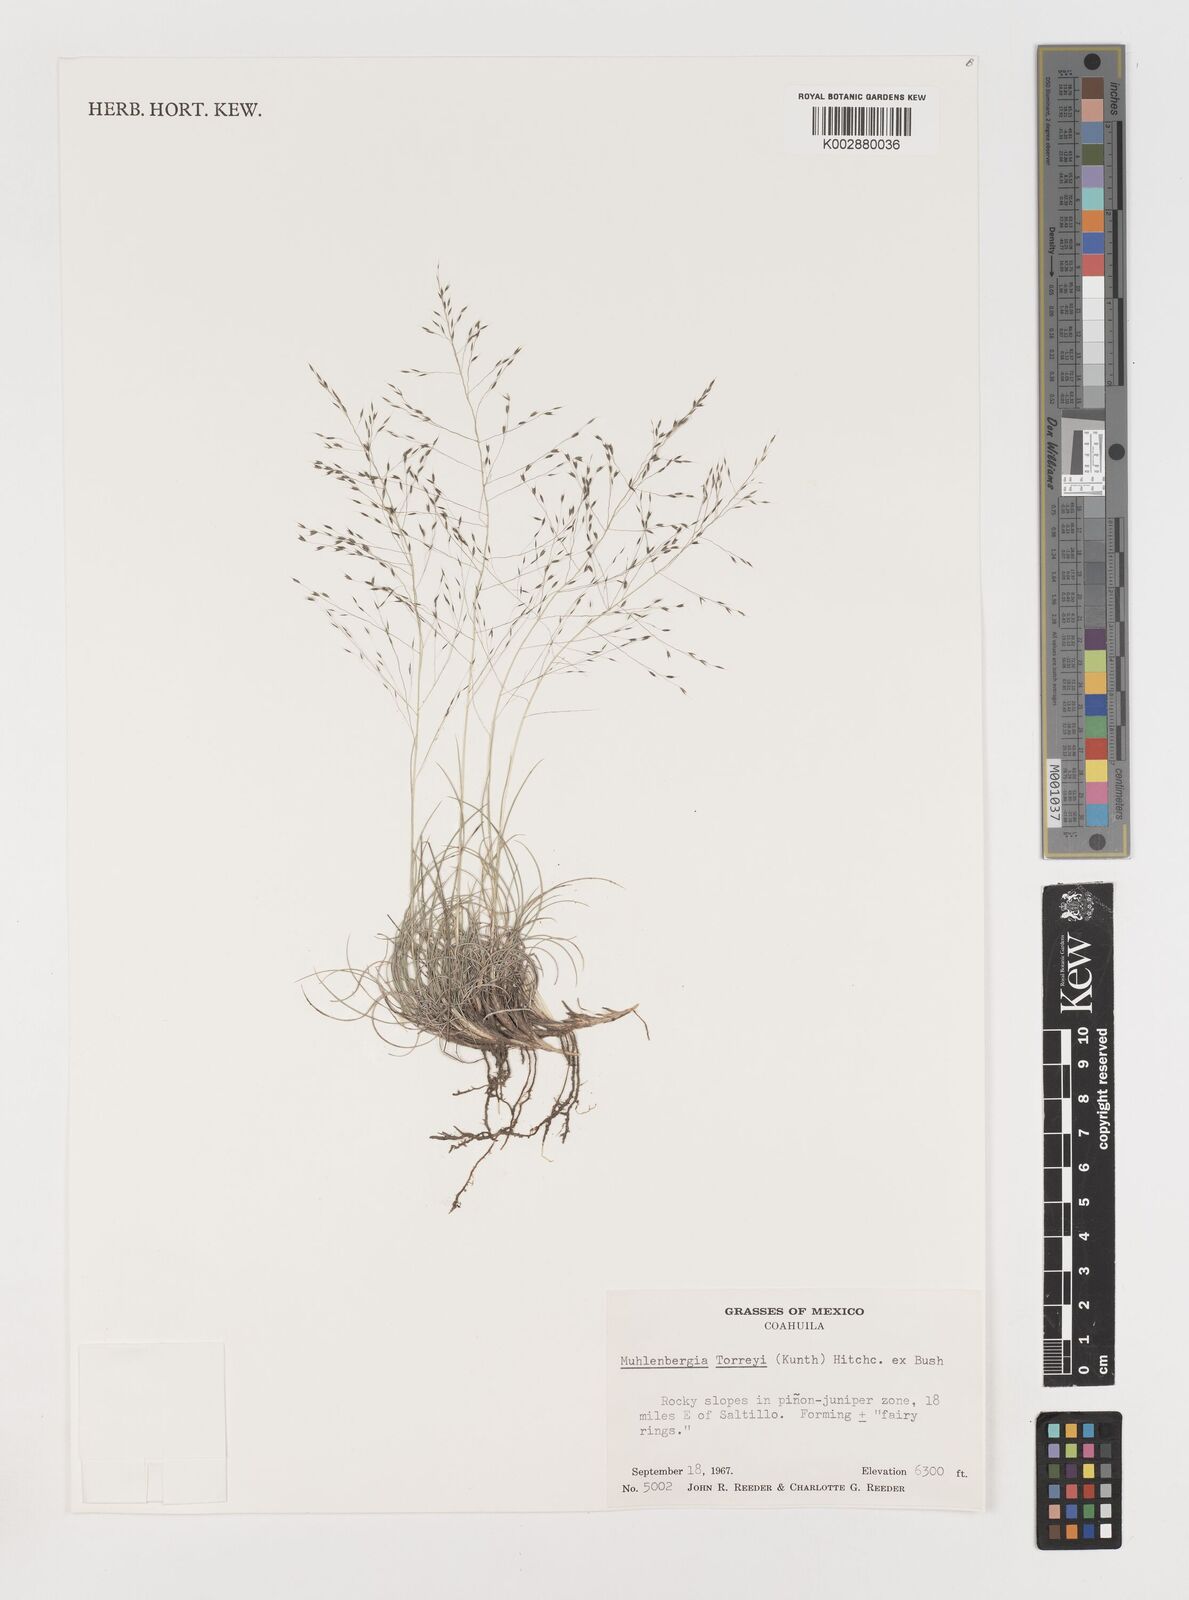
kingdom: Plantae
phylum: Tracheophyta
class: Liliopsida
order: Poales
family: Poaceae
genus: Muhlenbergia
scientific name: Muhlenbergia torreyi
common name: Ring grass
